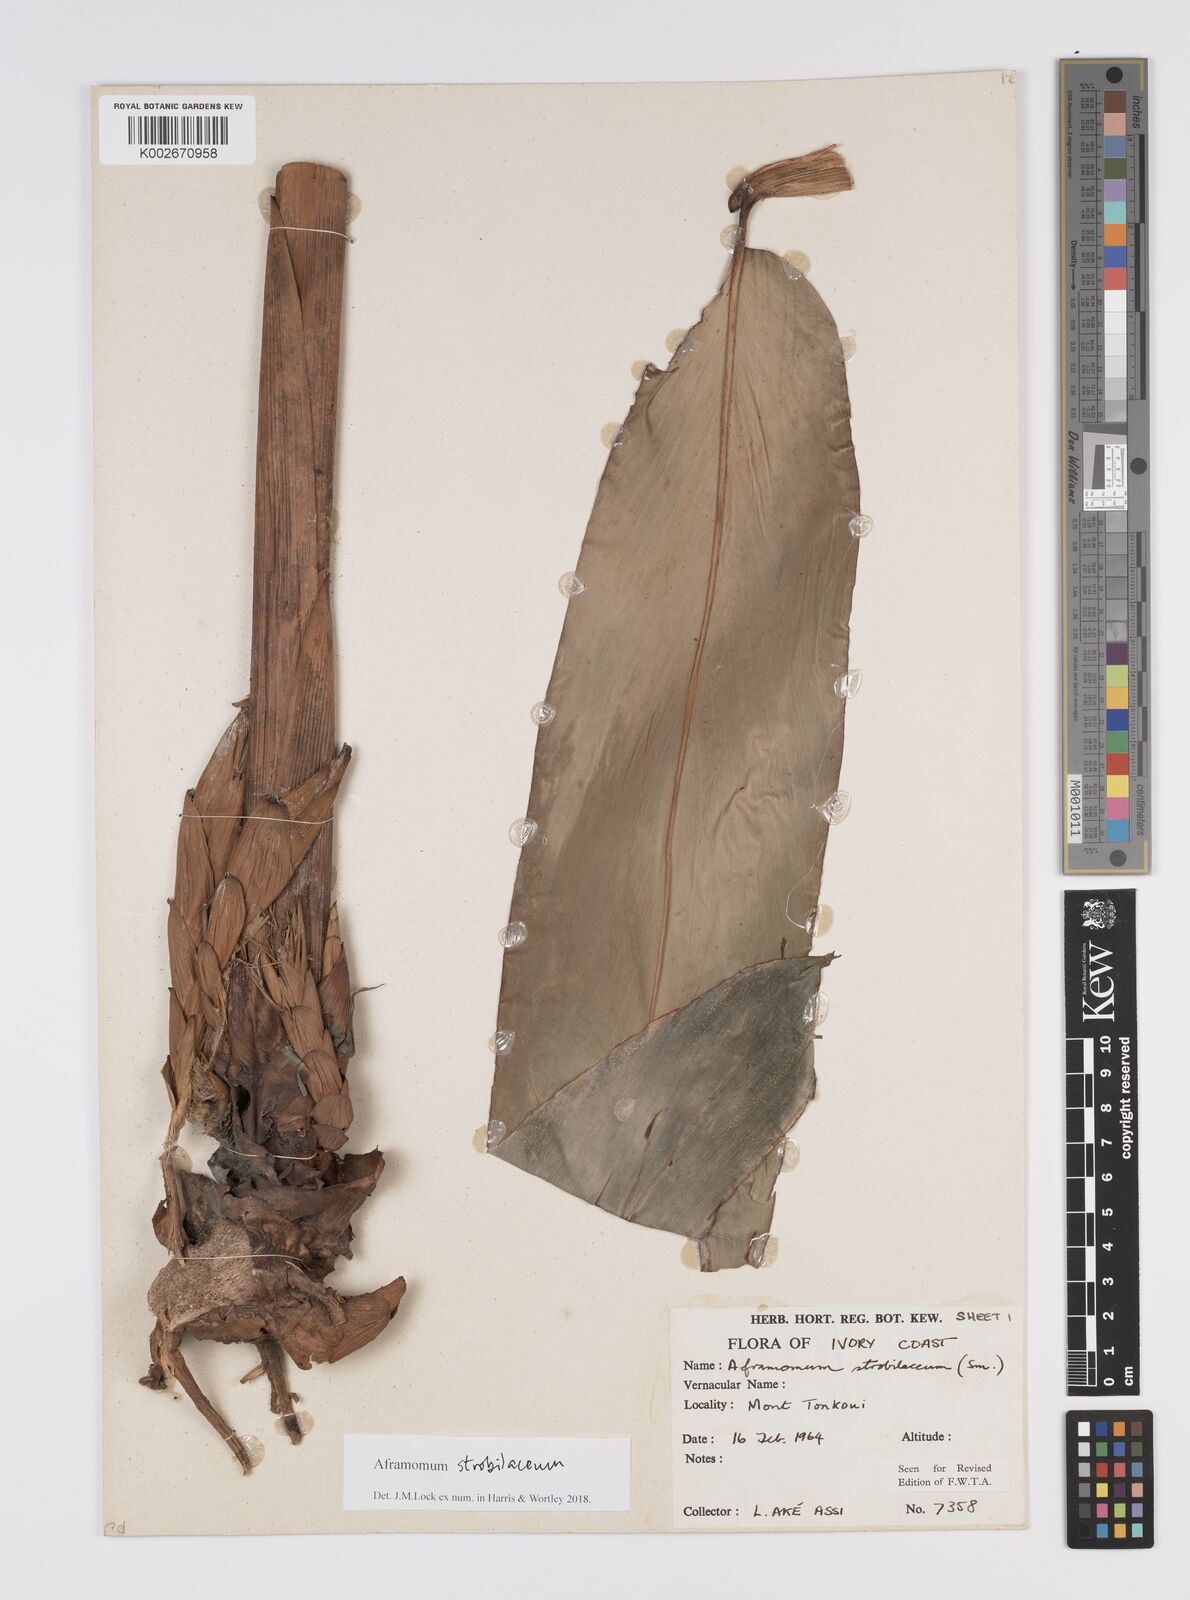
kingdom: Plantae
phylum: Tracheophyta
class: Liliopsida
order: Zingiberales
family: Zingiberaceae
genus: Aframomum
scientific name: Aframomum strobilaceum
